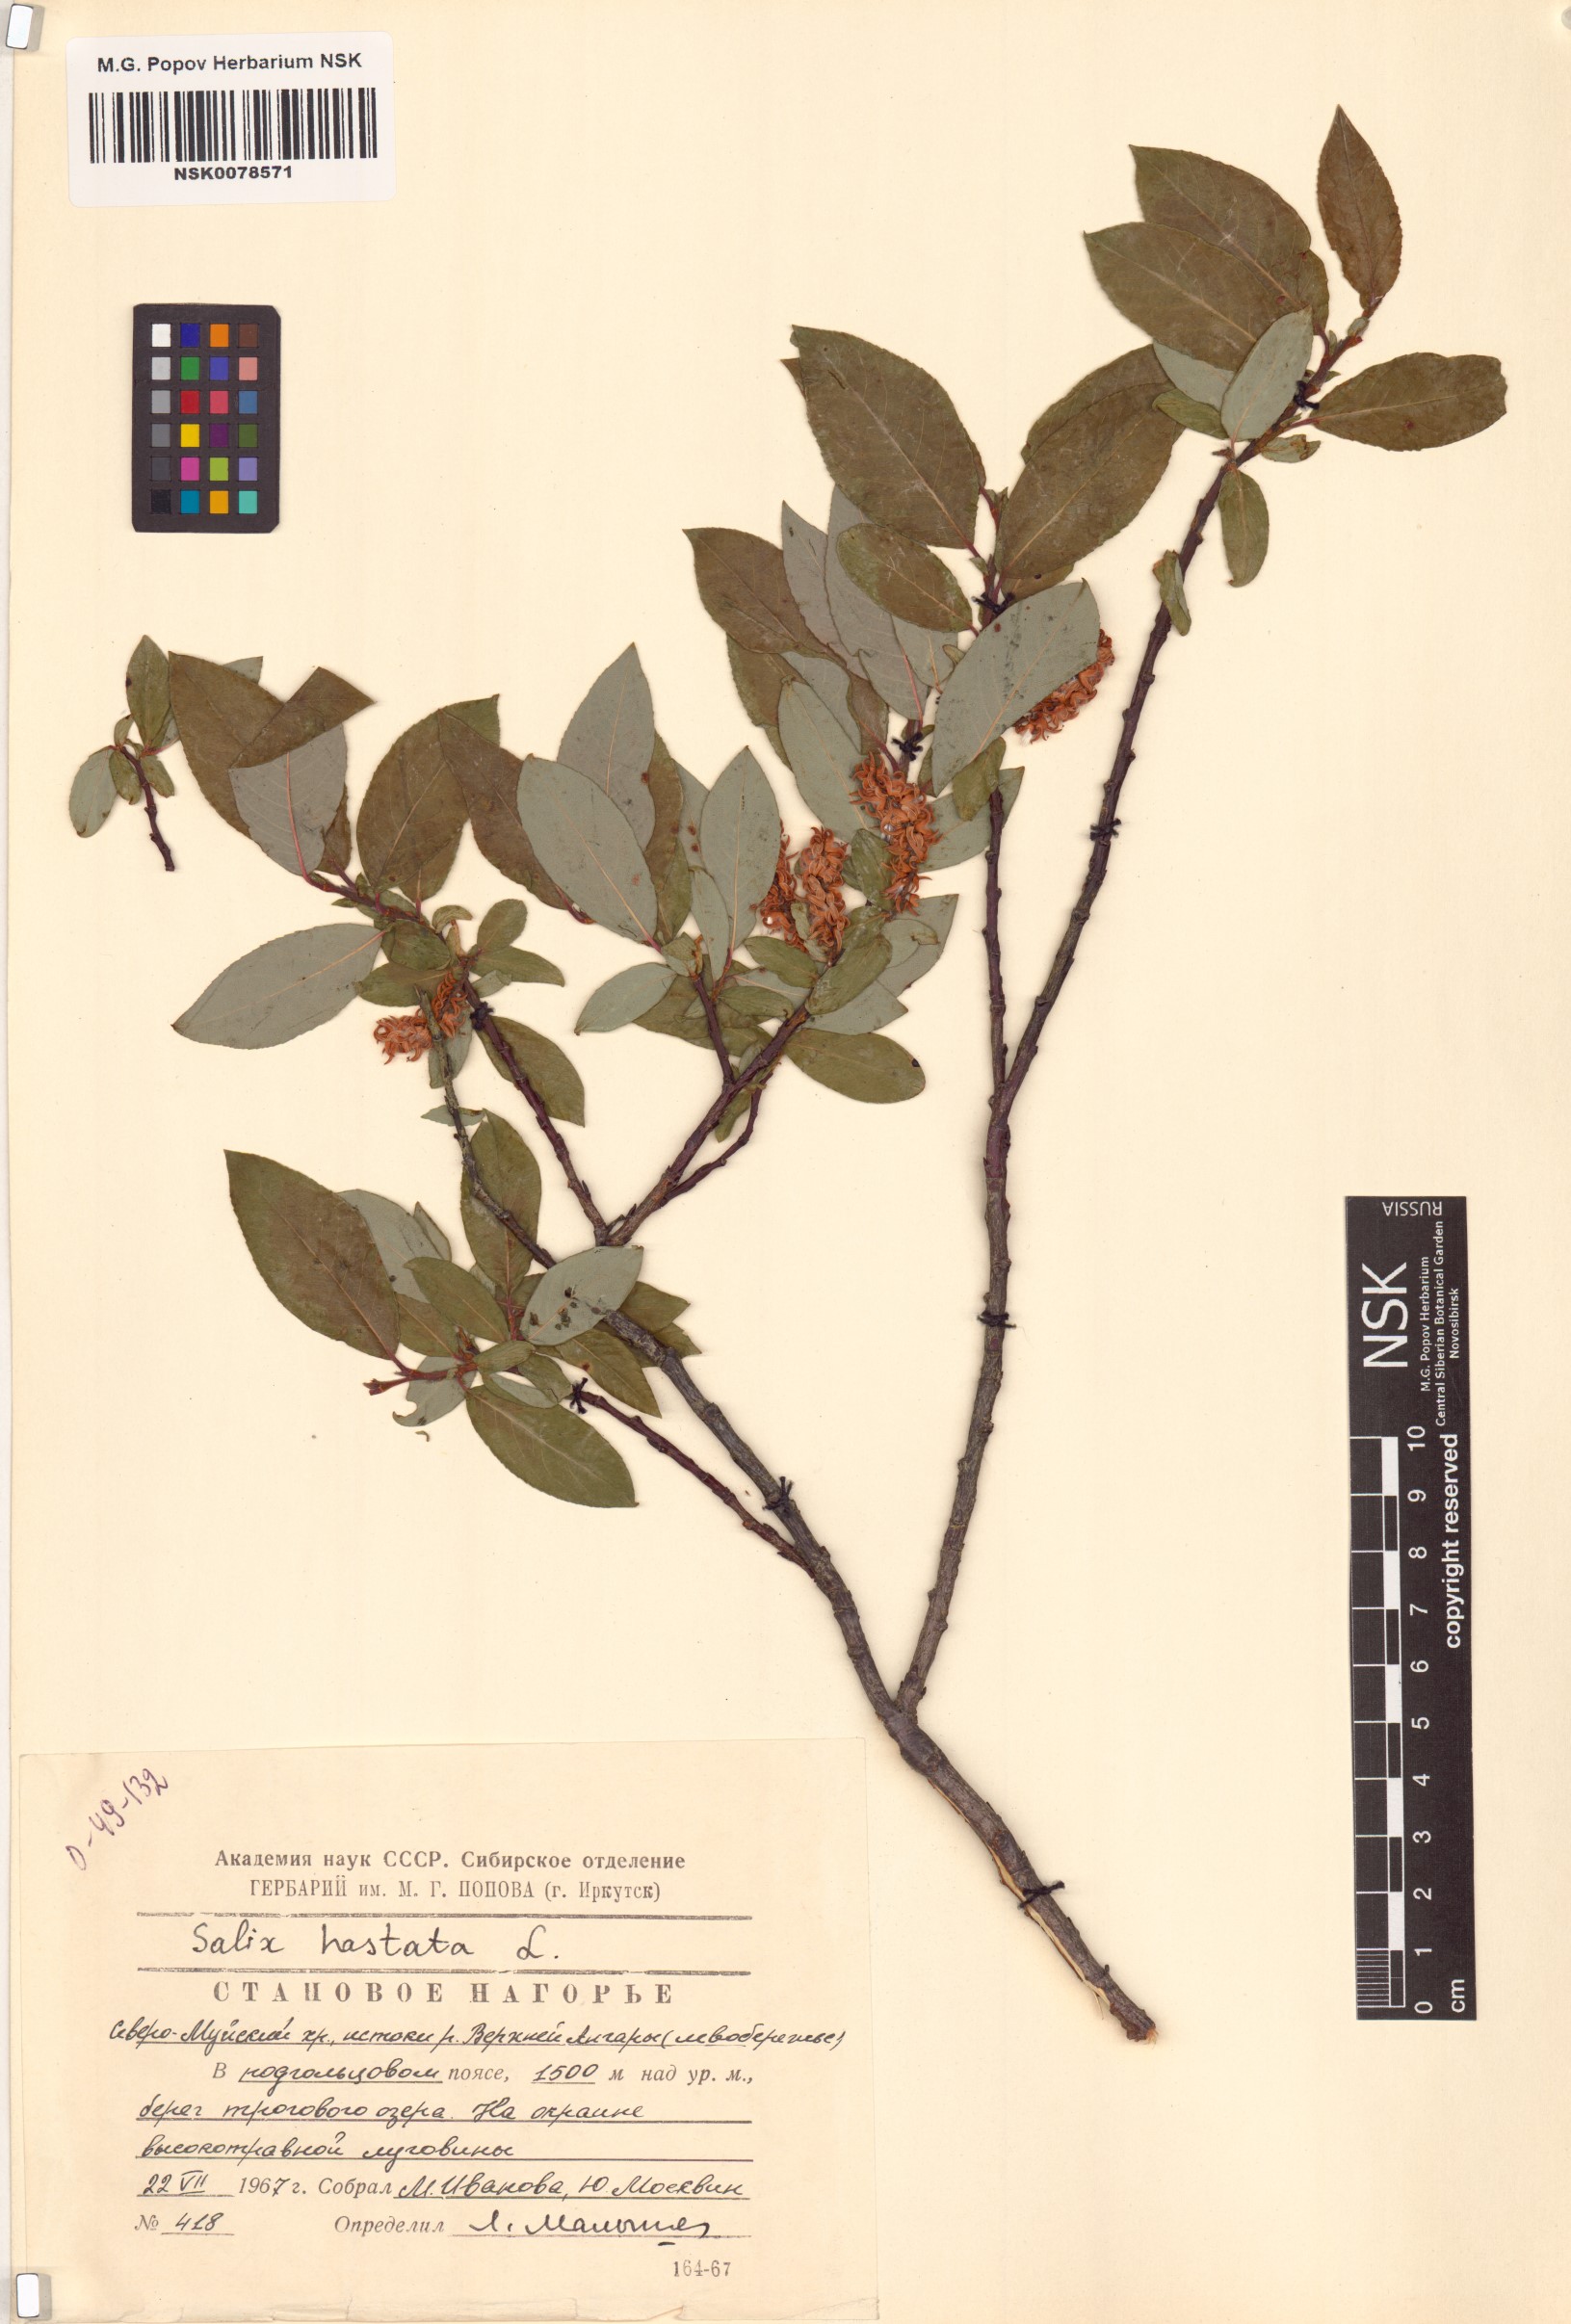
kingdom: Plantae
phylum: Tracheophyta
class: Magnoliopsida
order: Malpighiales
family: Salicaceae
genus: Salix
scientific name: Salix hastata
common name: Halberd willow
